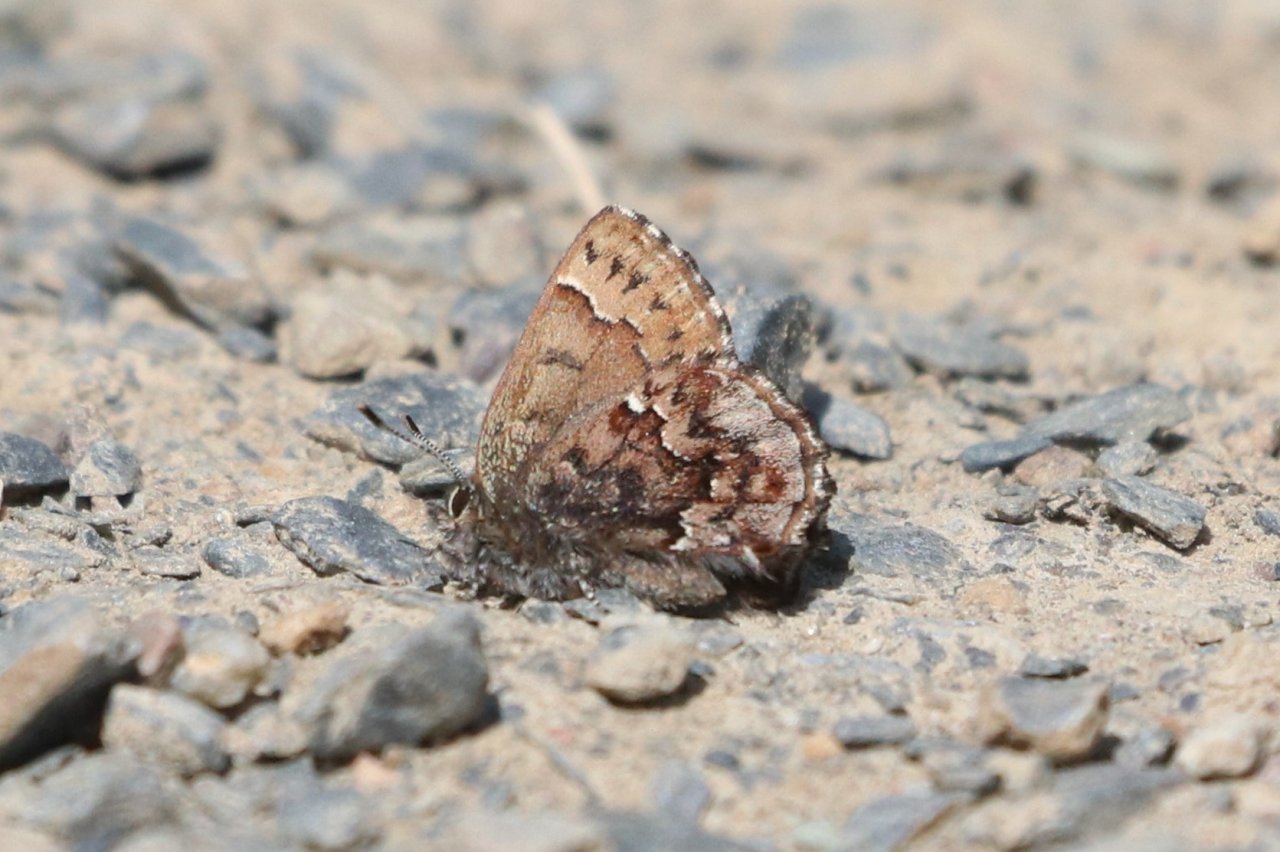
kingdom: Animalia
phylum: Arthropoda
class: Insecta
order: Lepidoptera
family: Lycaenidae
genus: Incisalia
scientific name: Incisalia niphon
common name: Eastern Pine Elfin
